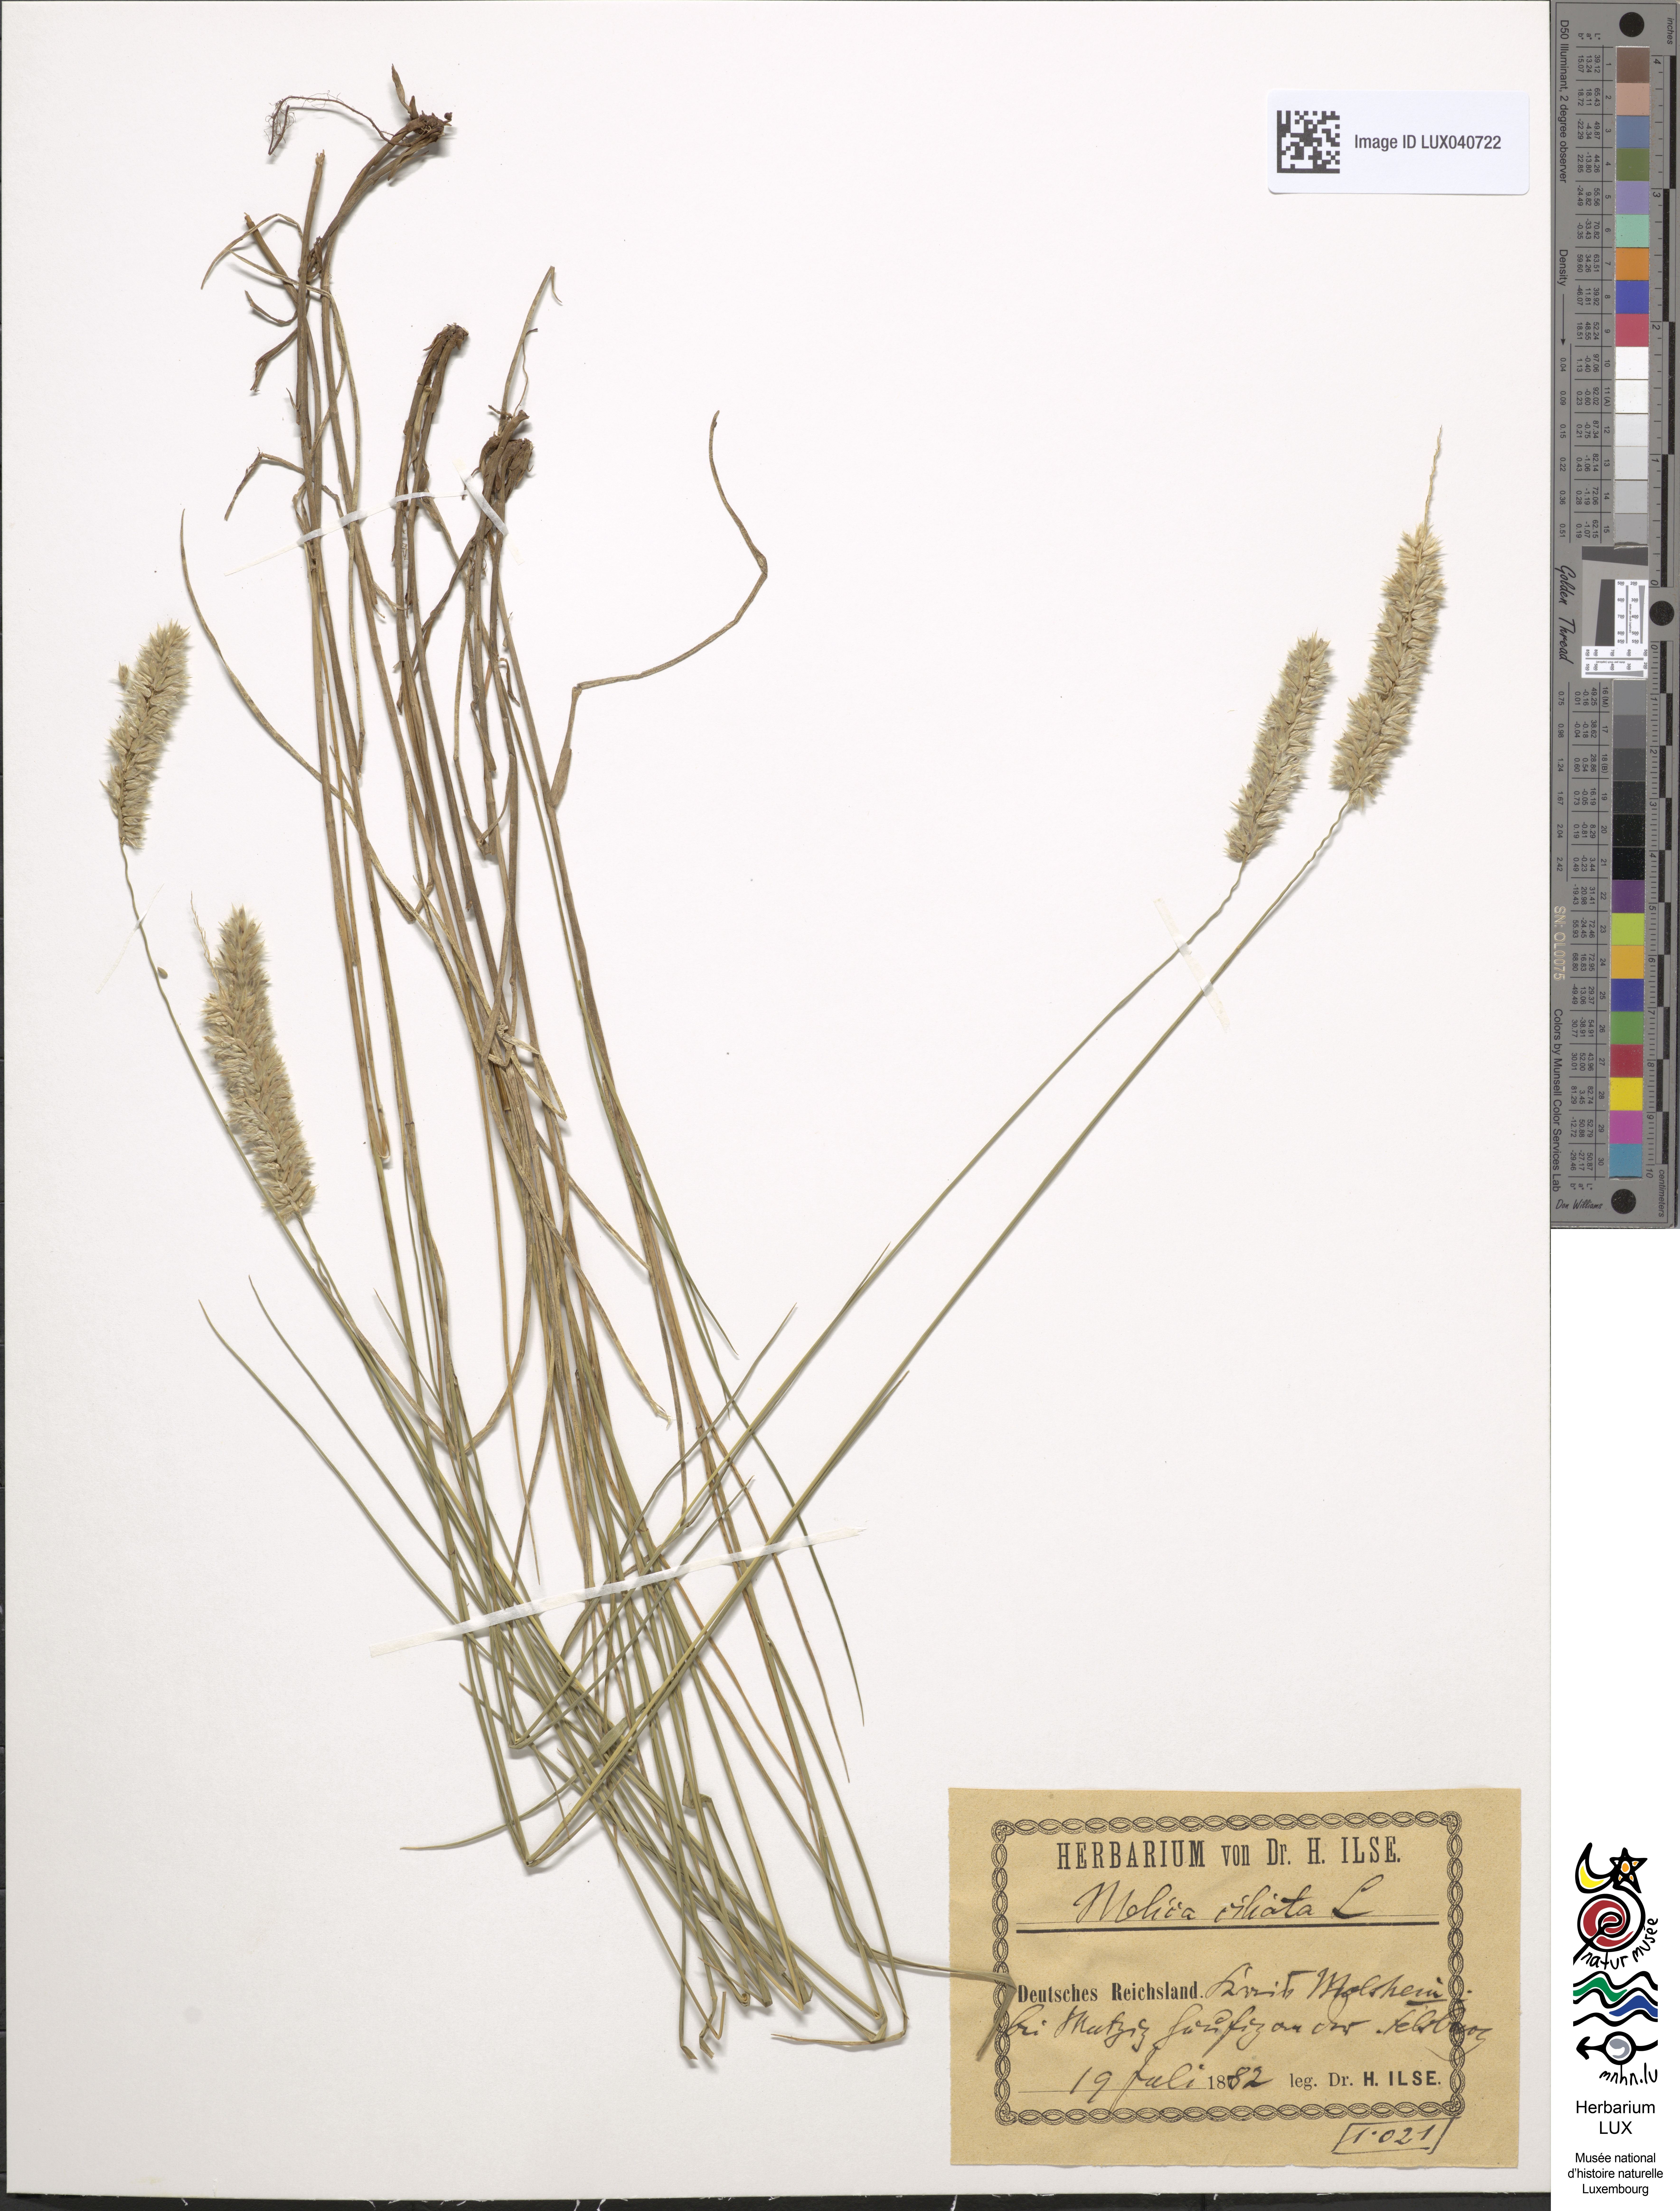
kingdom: Plantae
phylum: Tracheophyta
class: Liliopsida
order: Poales
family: Poaceae
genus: Melica
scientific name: Melica ciliata
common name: Hairy melicgrass
